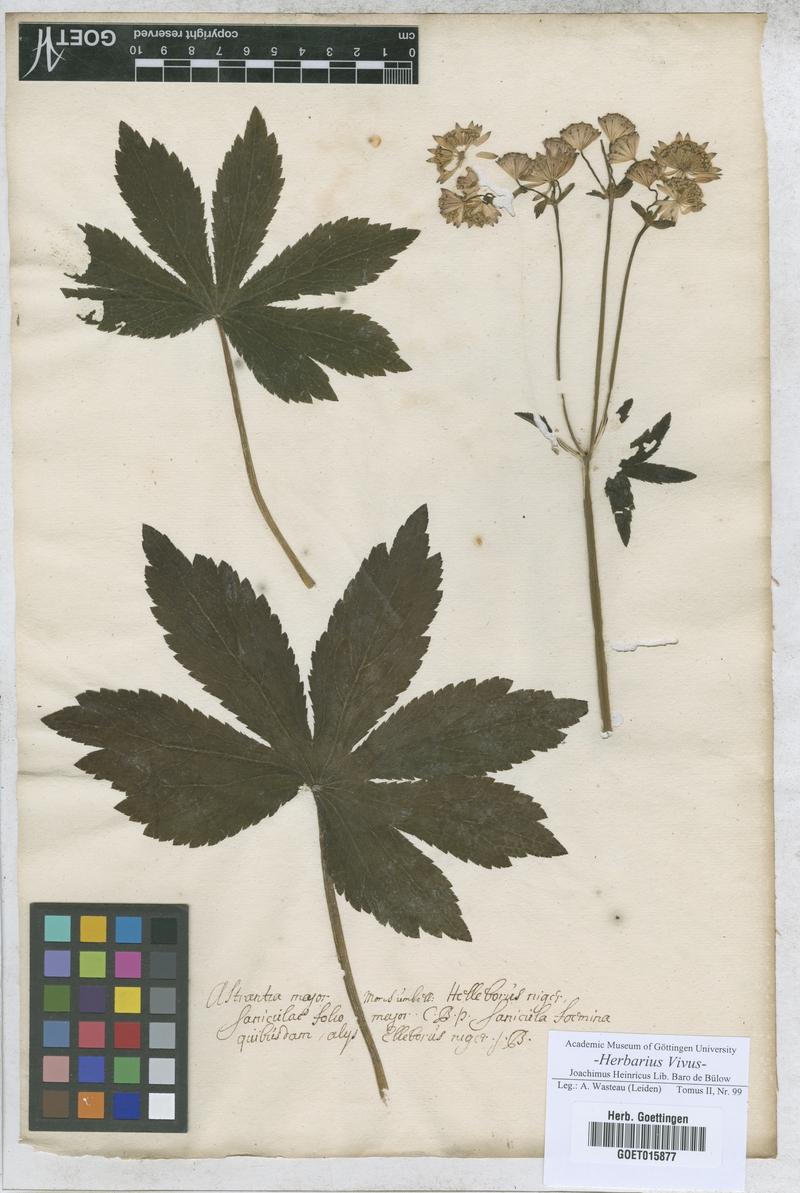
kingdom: Plantae
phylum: Tracheophyta
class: Magnoliopsida
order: Apiales
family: Apiaceae
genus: Astrantia
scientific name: Astrantia major
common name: Greater masterwort
